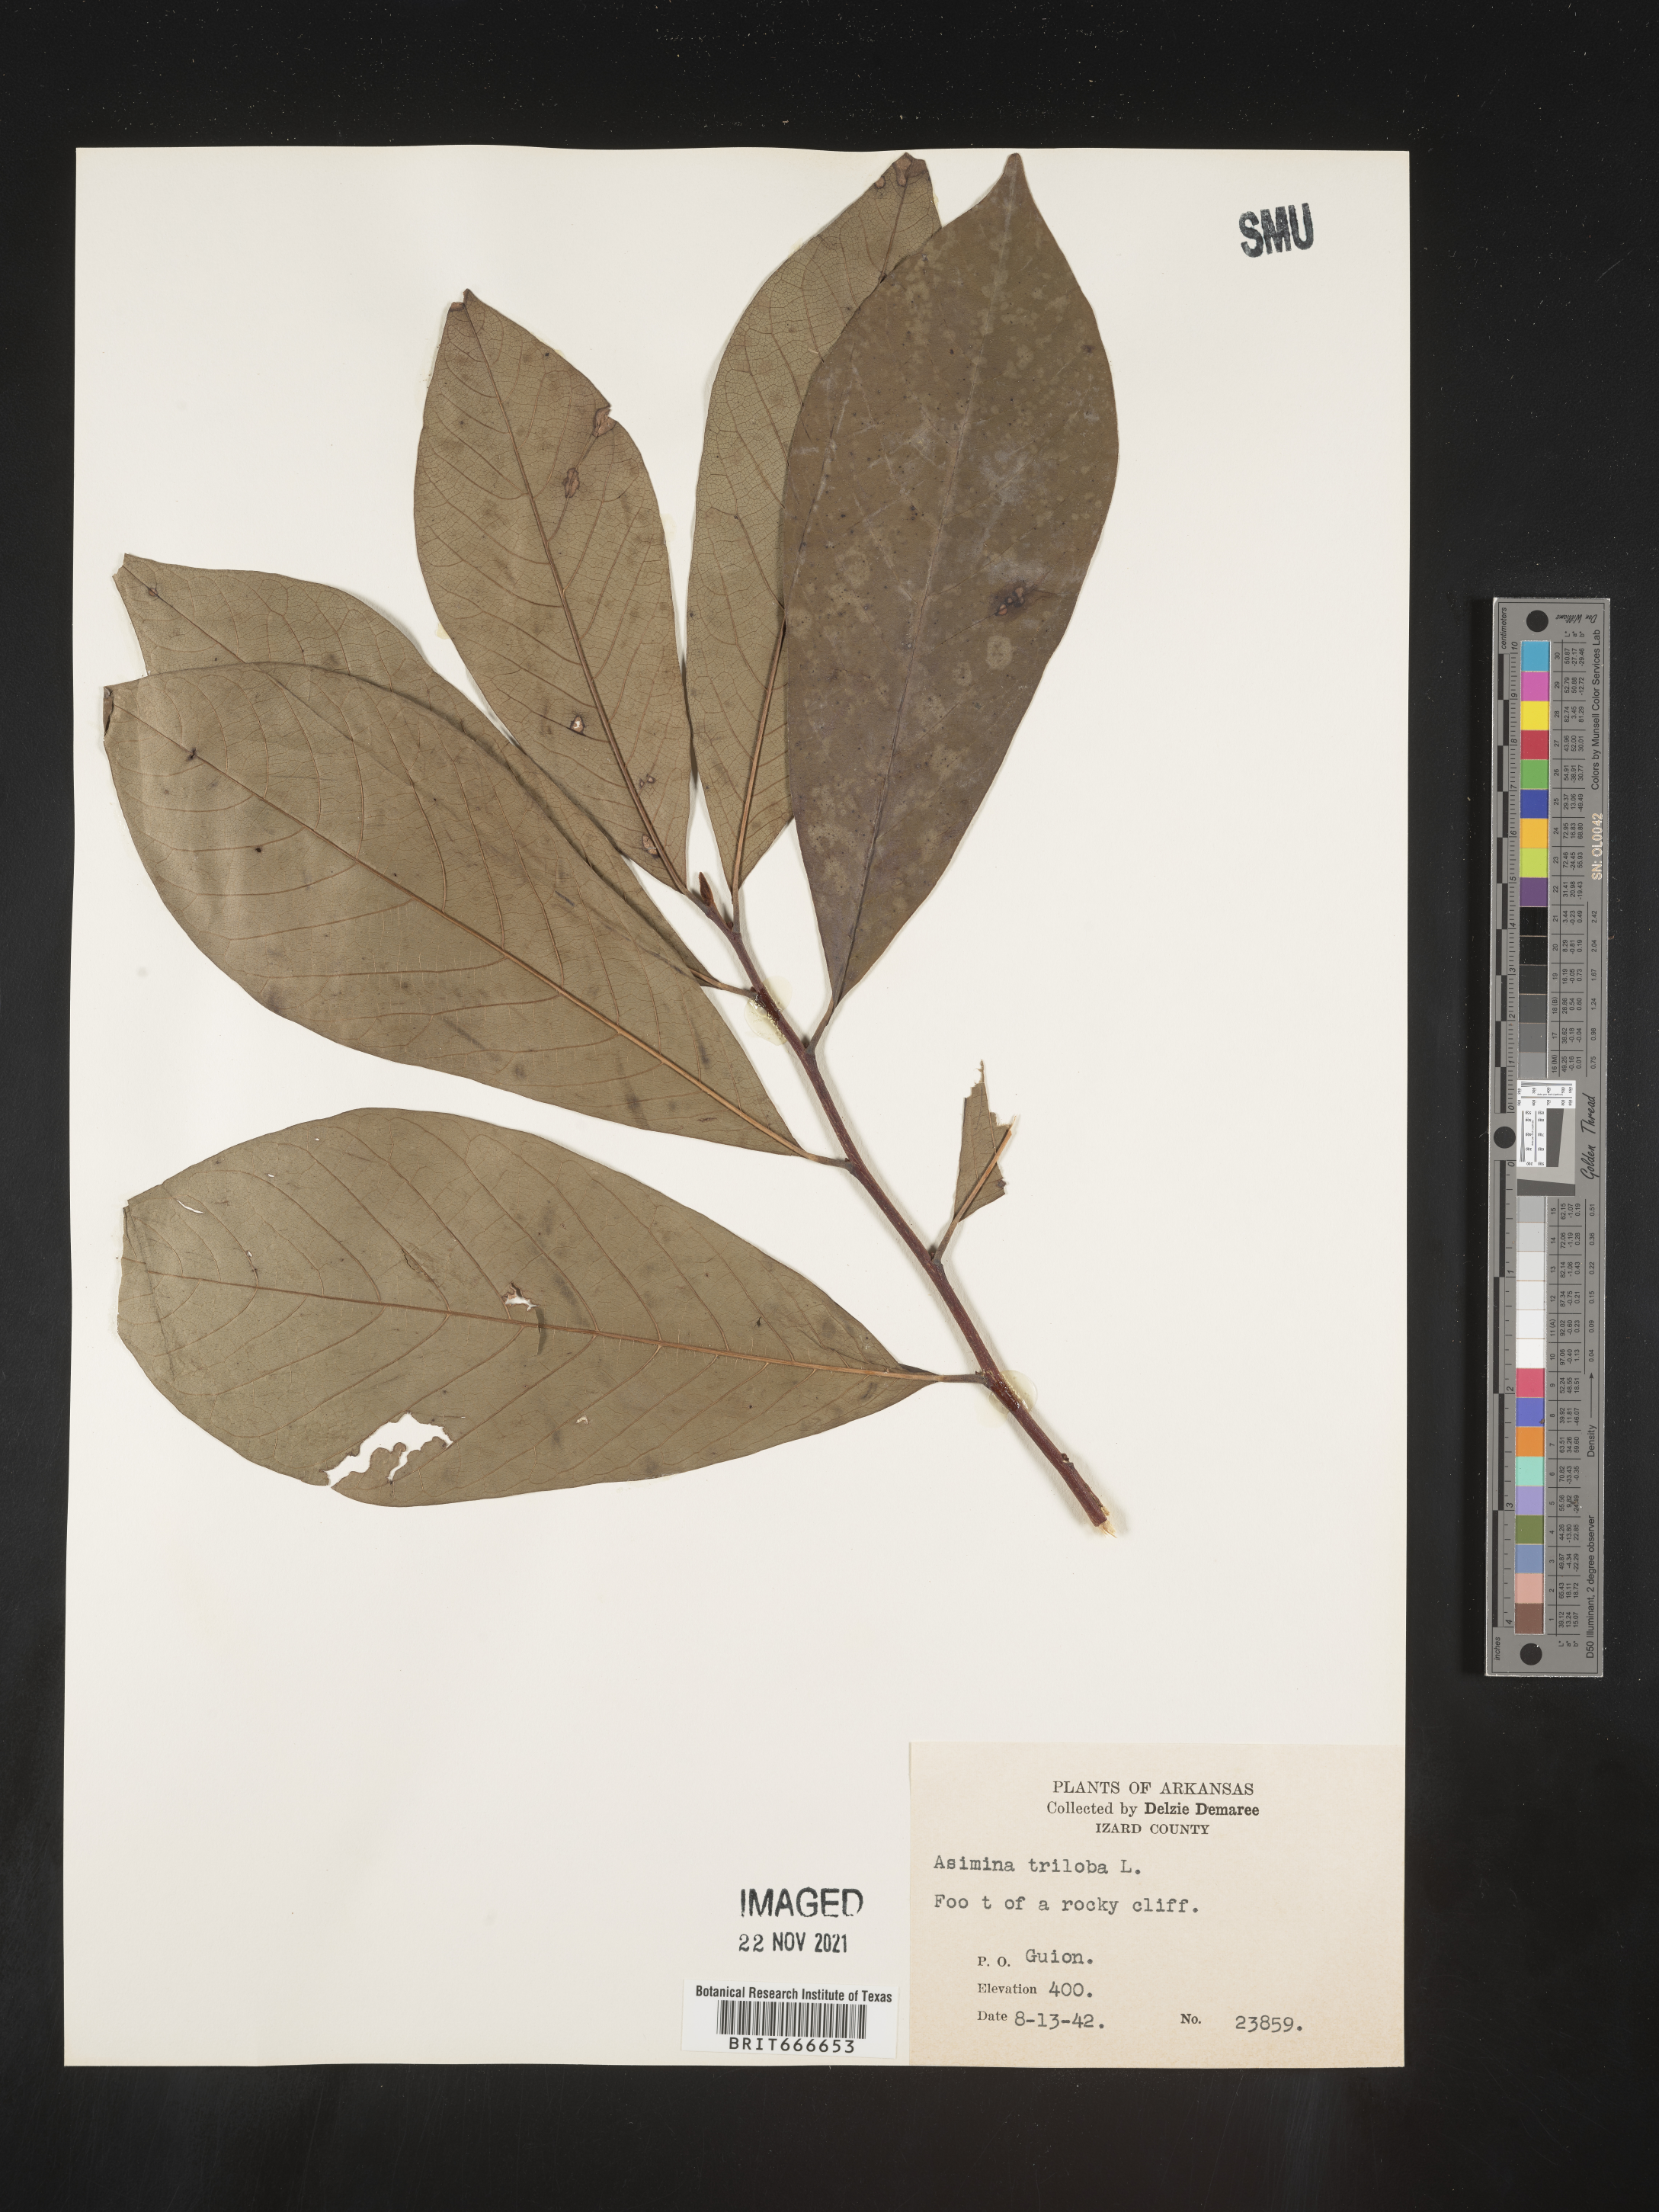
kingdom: Plantae
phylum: Tracheophyta
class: Magnoliopsida
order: Magnoliales
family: Annonaceae
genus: Asimina
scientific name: Asimina triloba
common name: Dog-banana
